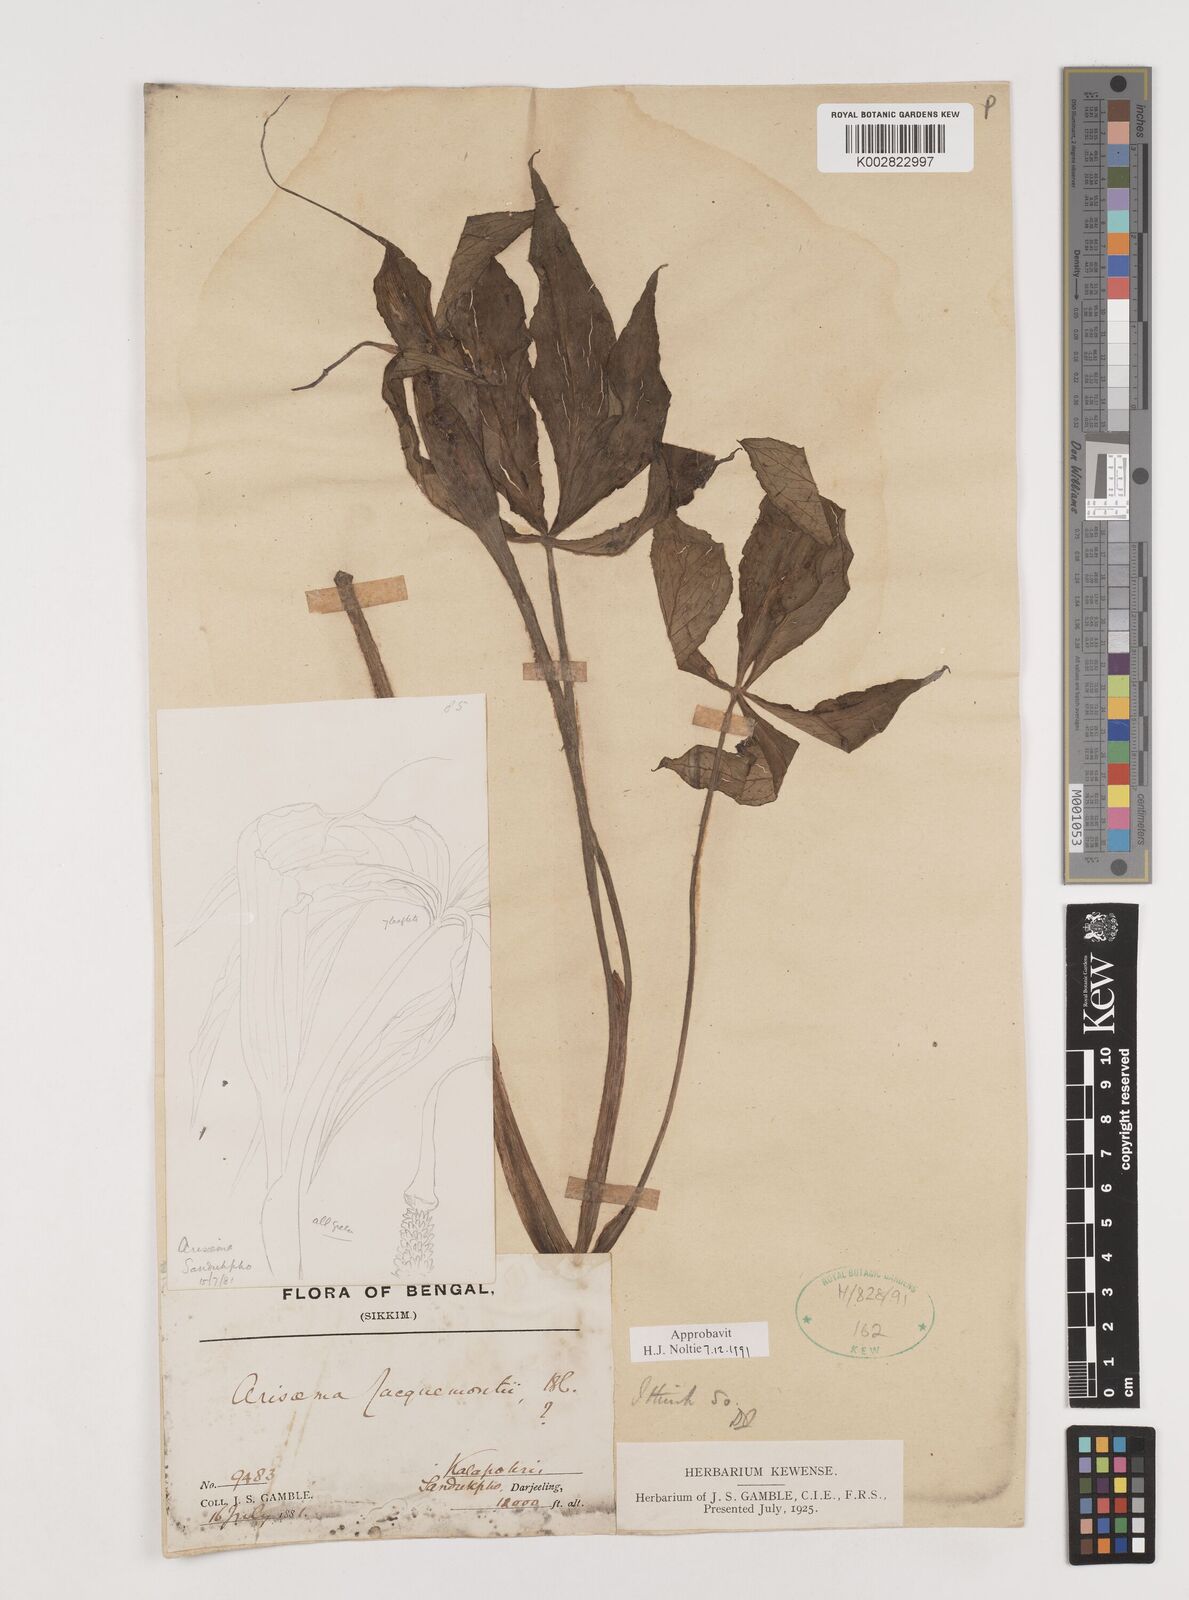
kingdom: Plantae
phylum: Tracheophyta
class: Liliopsida
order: Alismatales
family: Araceae
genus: Arisaema
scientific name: Arisaema jacquemontii
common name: Jacquemont's cobra-lily
